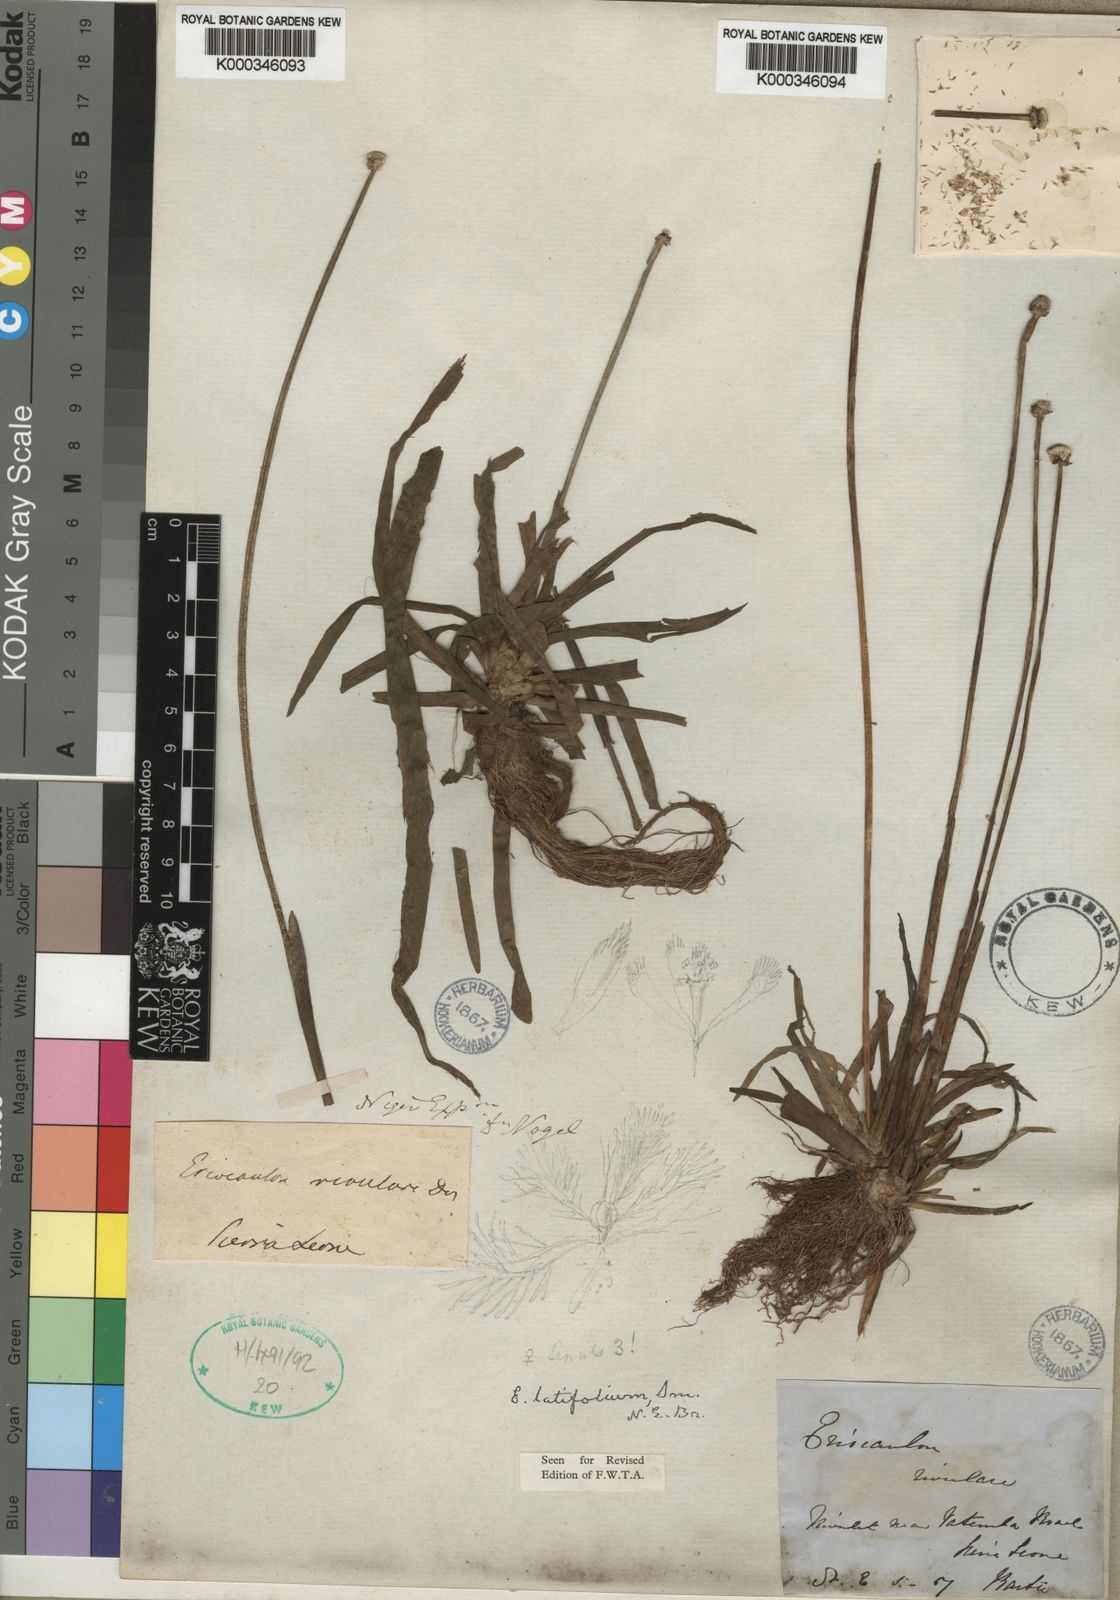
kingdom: Plantae
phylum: Tracheophyta
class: Liliopsida
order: Poales
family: Eriocaulaceae
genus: Eriocaulon
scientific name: Eriocaulon latifolium
